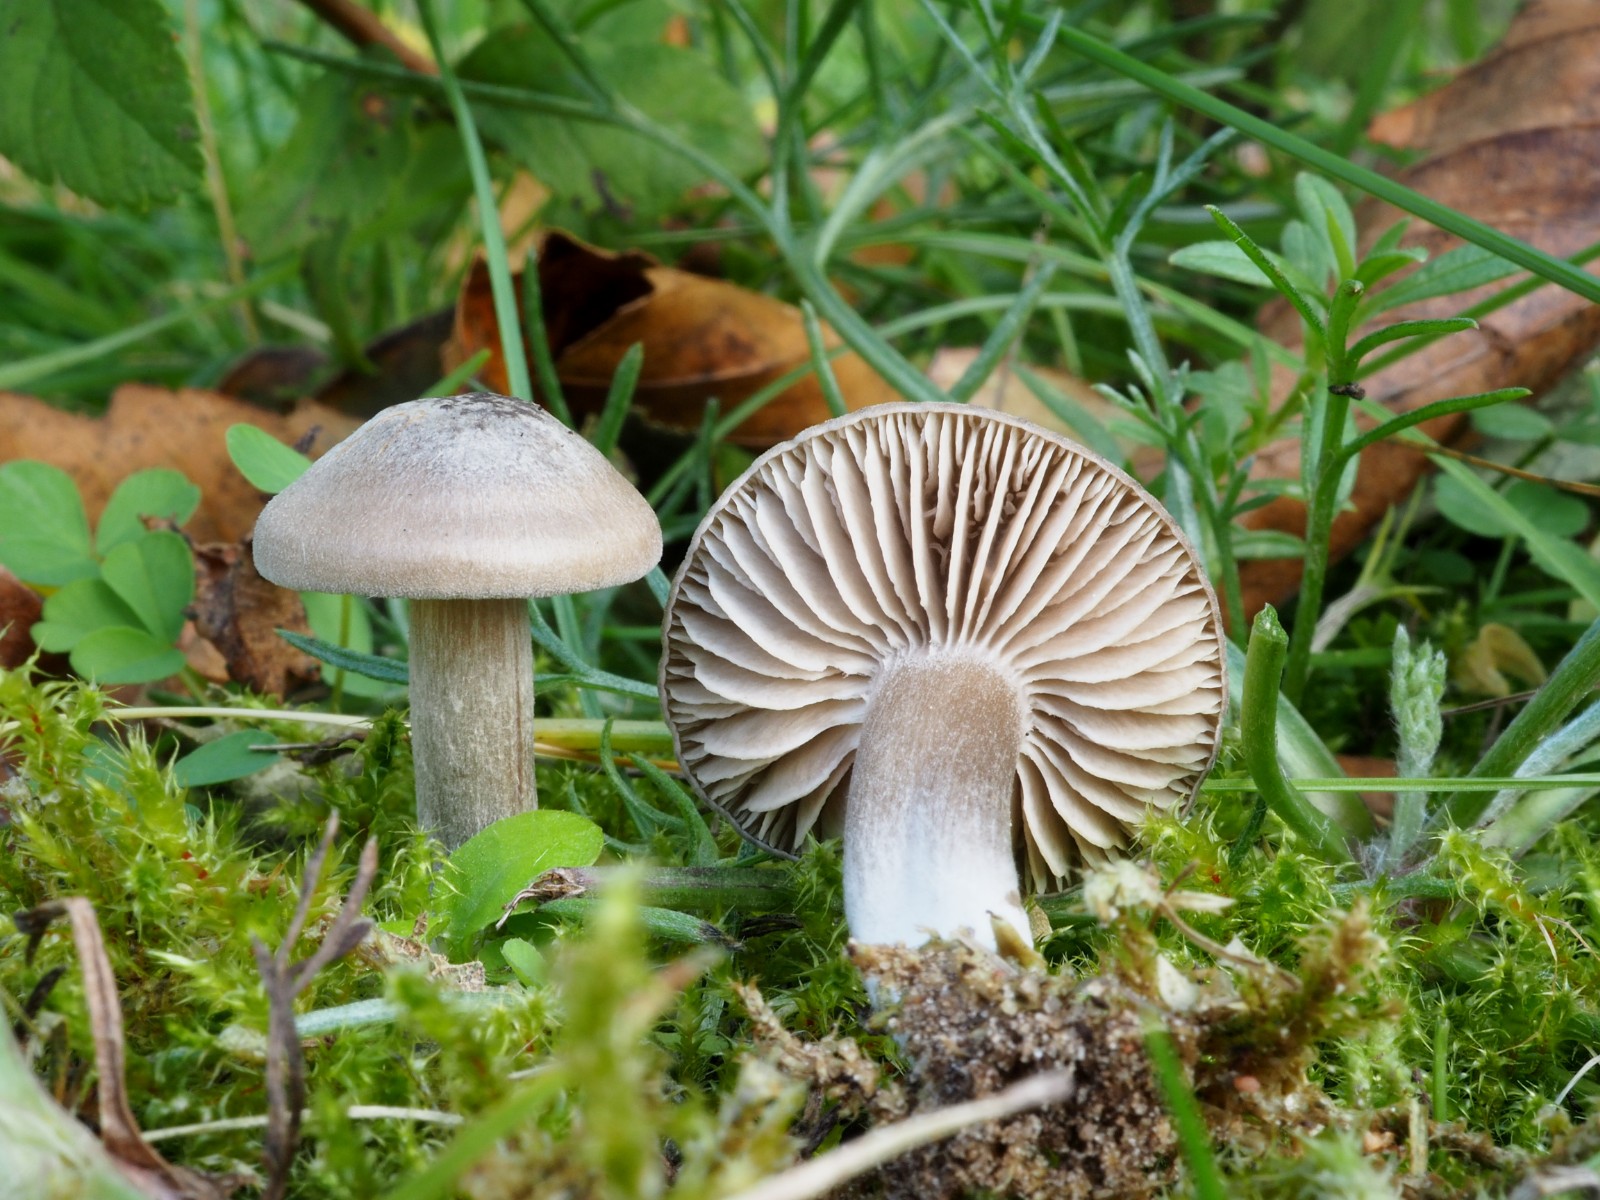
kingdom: Fungi
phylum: Basidiomycota
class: Agaricomycetes
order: Agaricales
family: Entolomataceae
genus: Entoloma
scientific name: Entoloma
